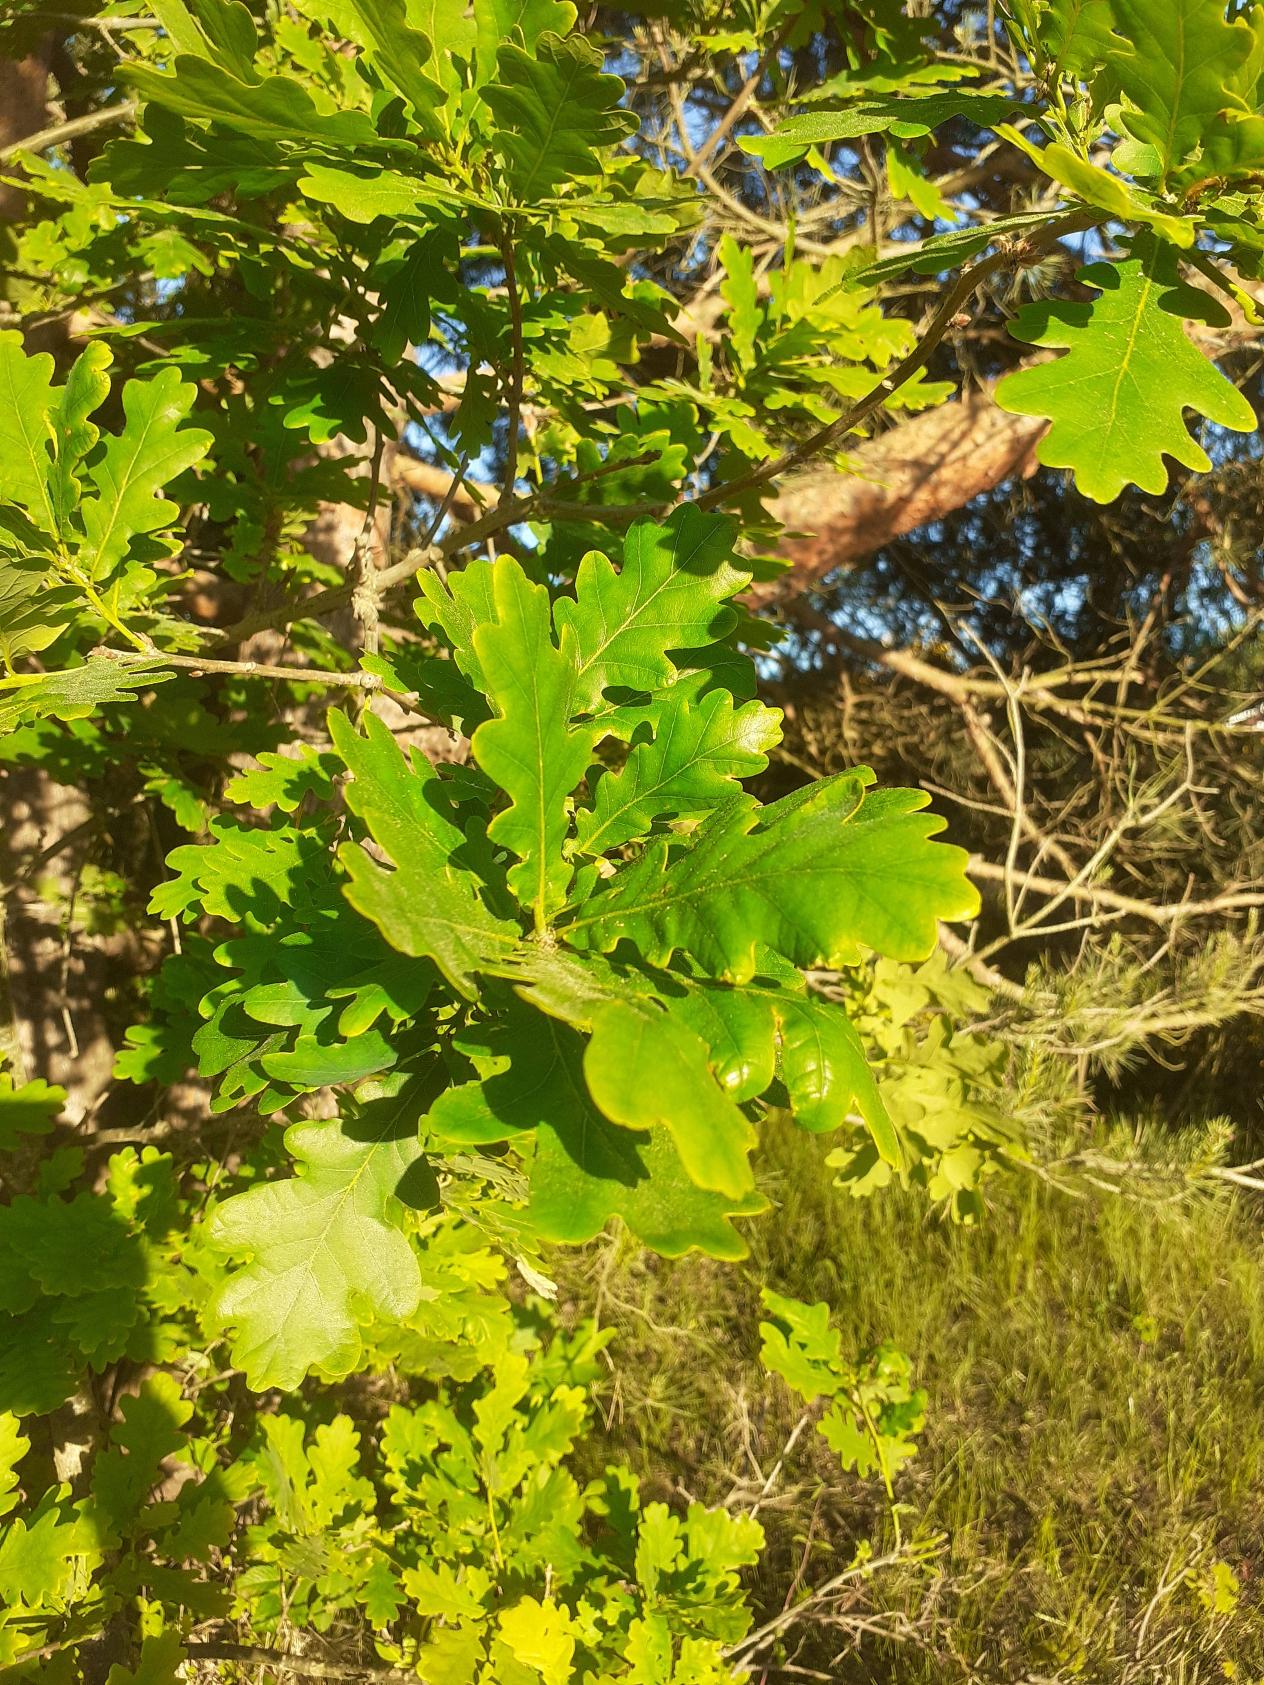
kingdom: Plantae
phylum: Tracheophyta
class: Magnoliopsida
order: Fagales
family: Fagaceae
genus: Quercus
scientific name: Quercus robur
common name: Stilk-eg/almindelig eg
